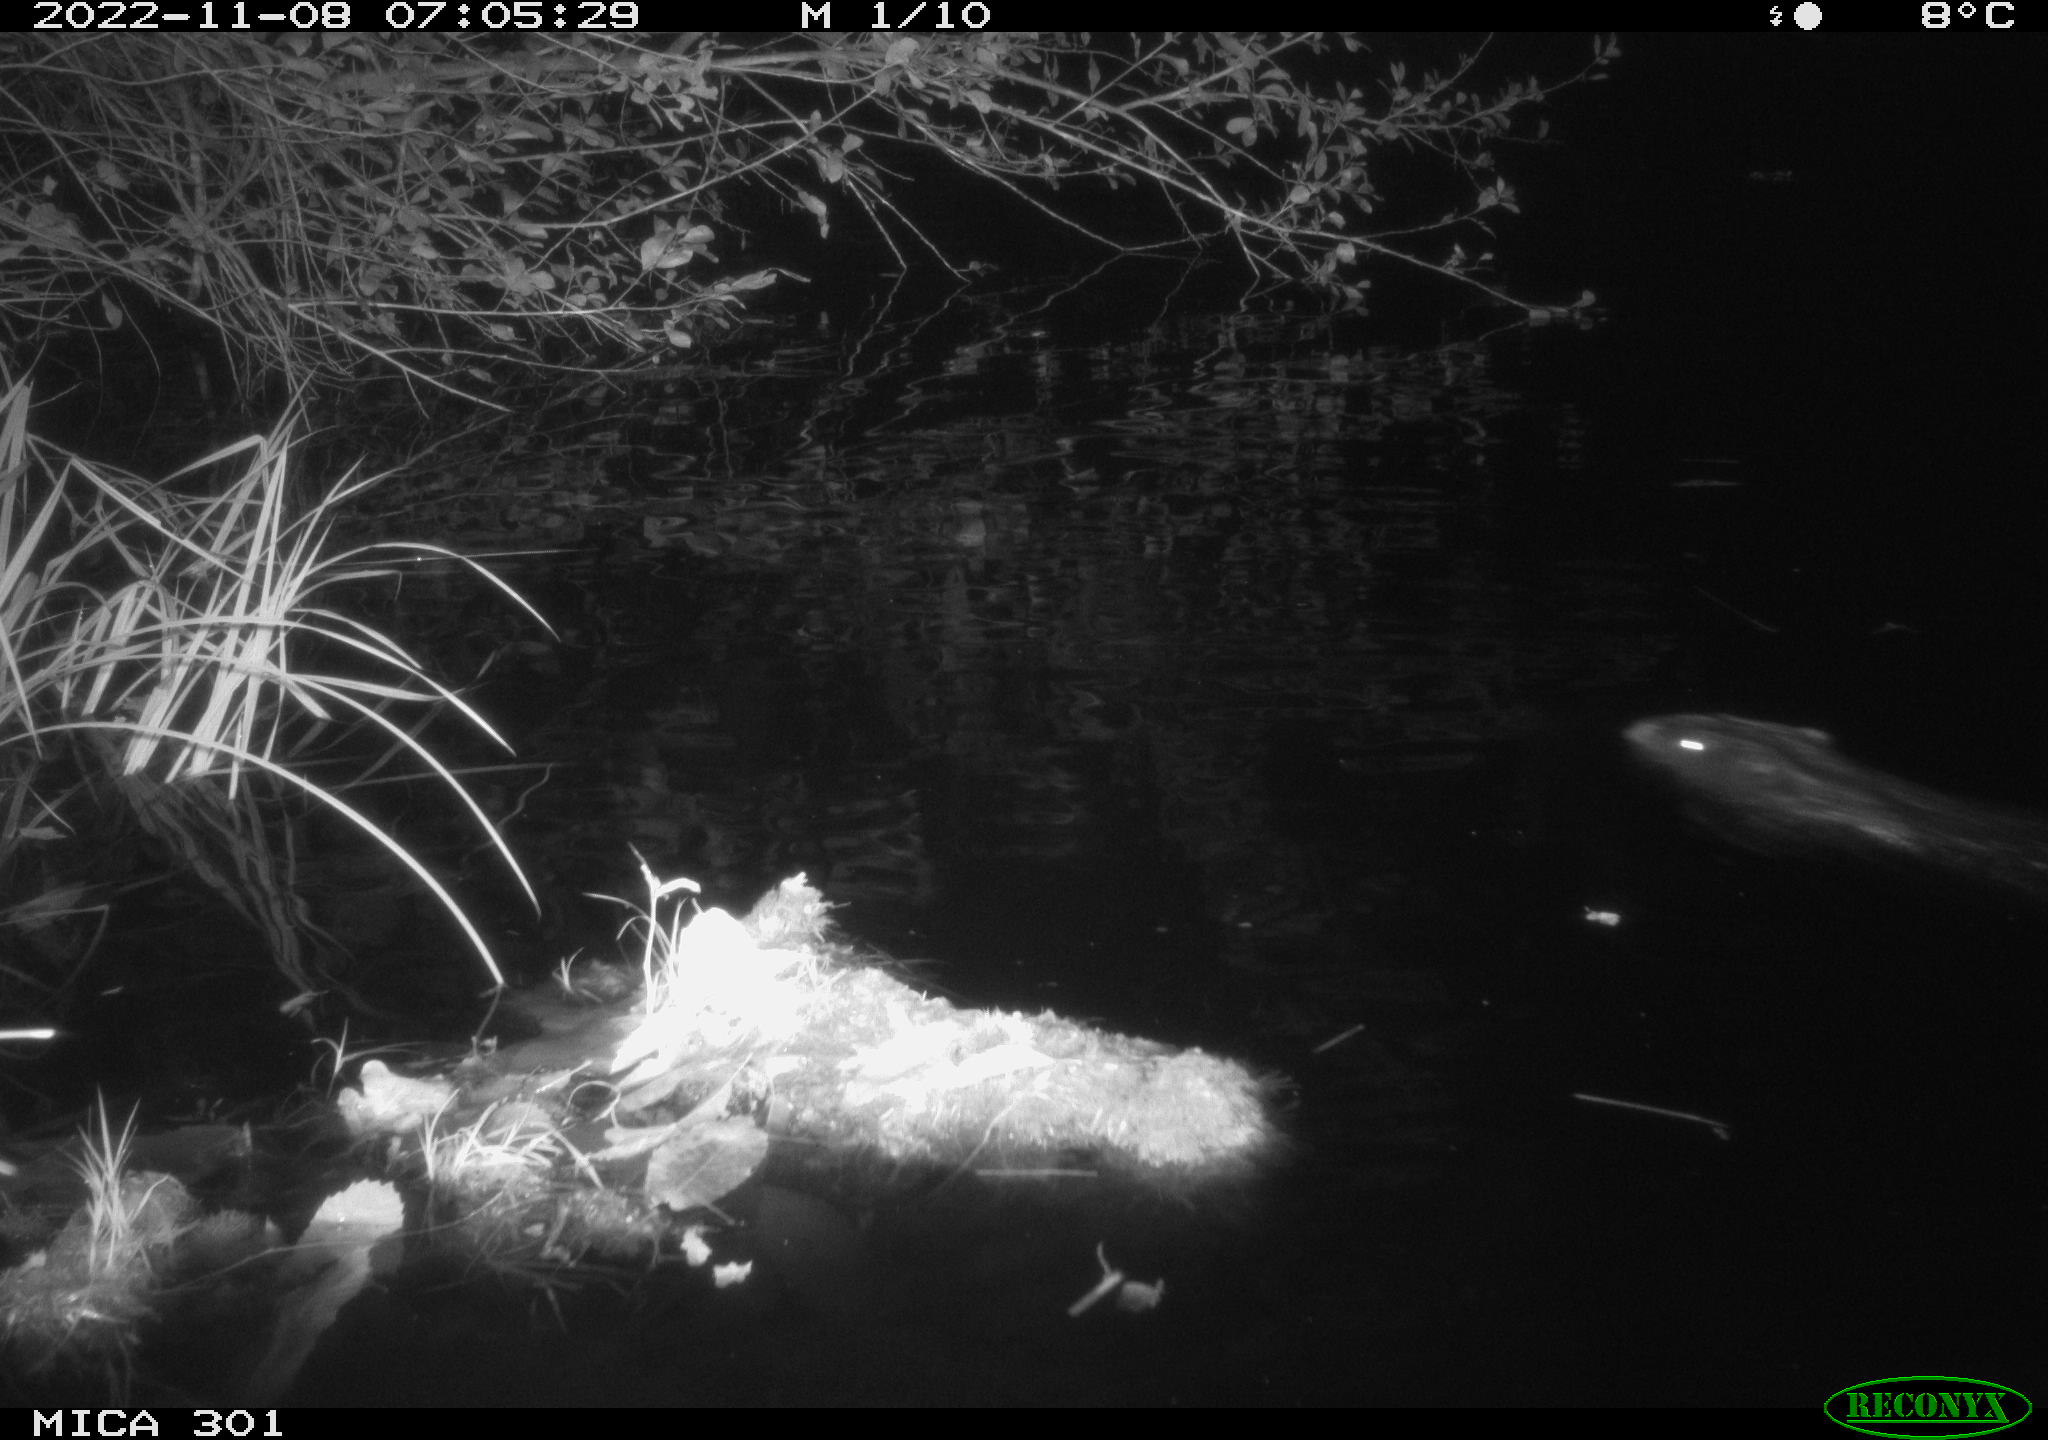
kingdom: Animalia
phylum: Chordata
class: Mammalia
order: Rodentia
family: Castoridae
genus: Castor
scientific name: Castor fiber
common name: Eurasian beaver
